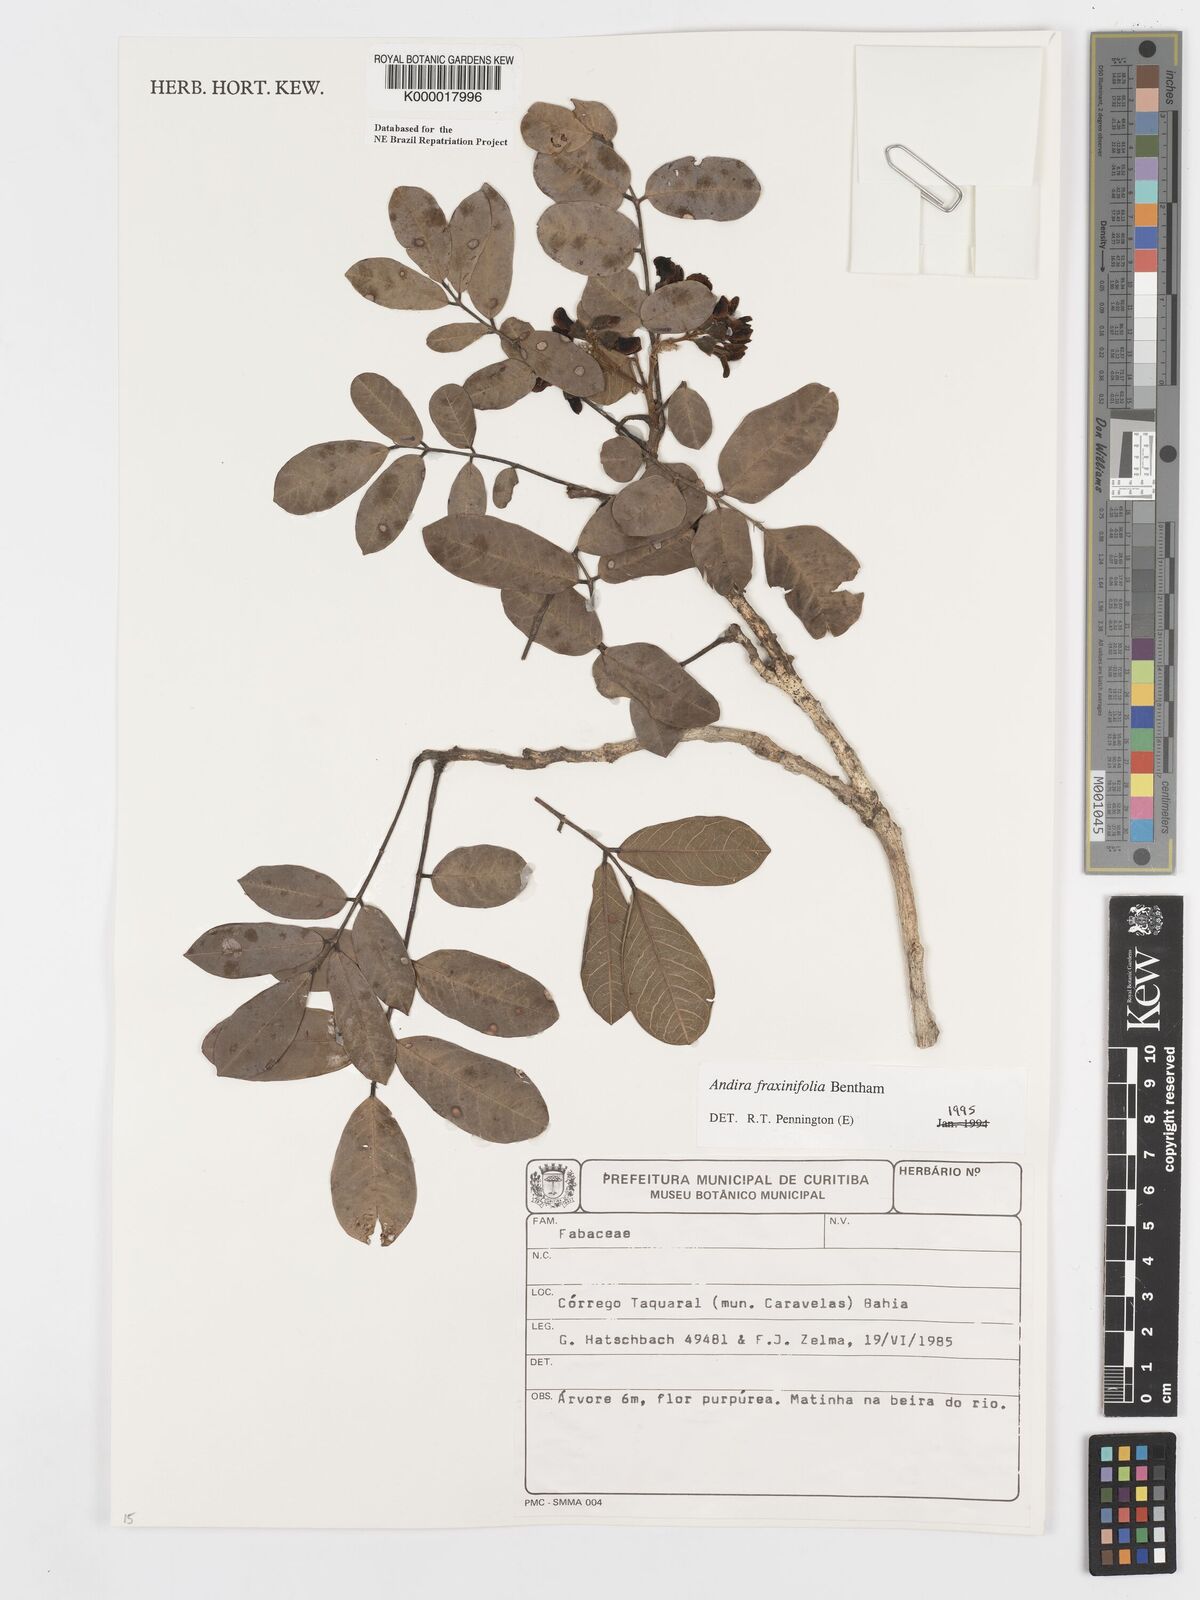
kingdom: Plantae
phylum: Tracheophyta
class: Magnoliopsida
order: Fabales
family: Fabaceae
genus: Andira
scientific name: Andira fraxinifolia
